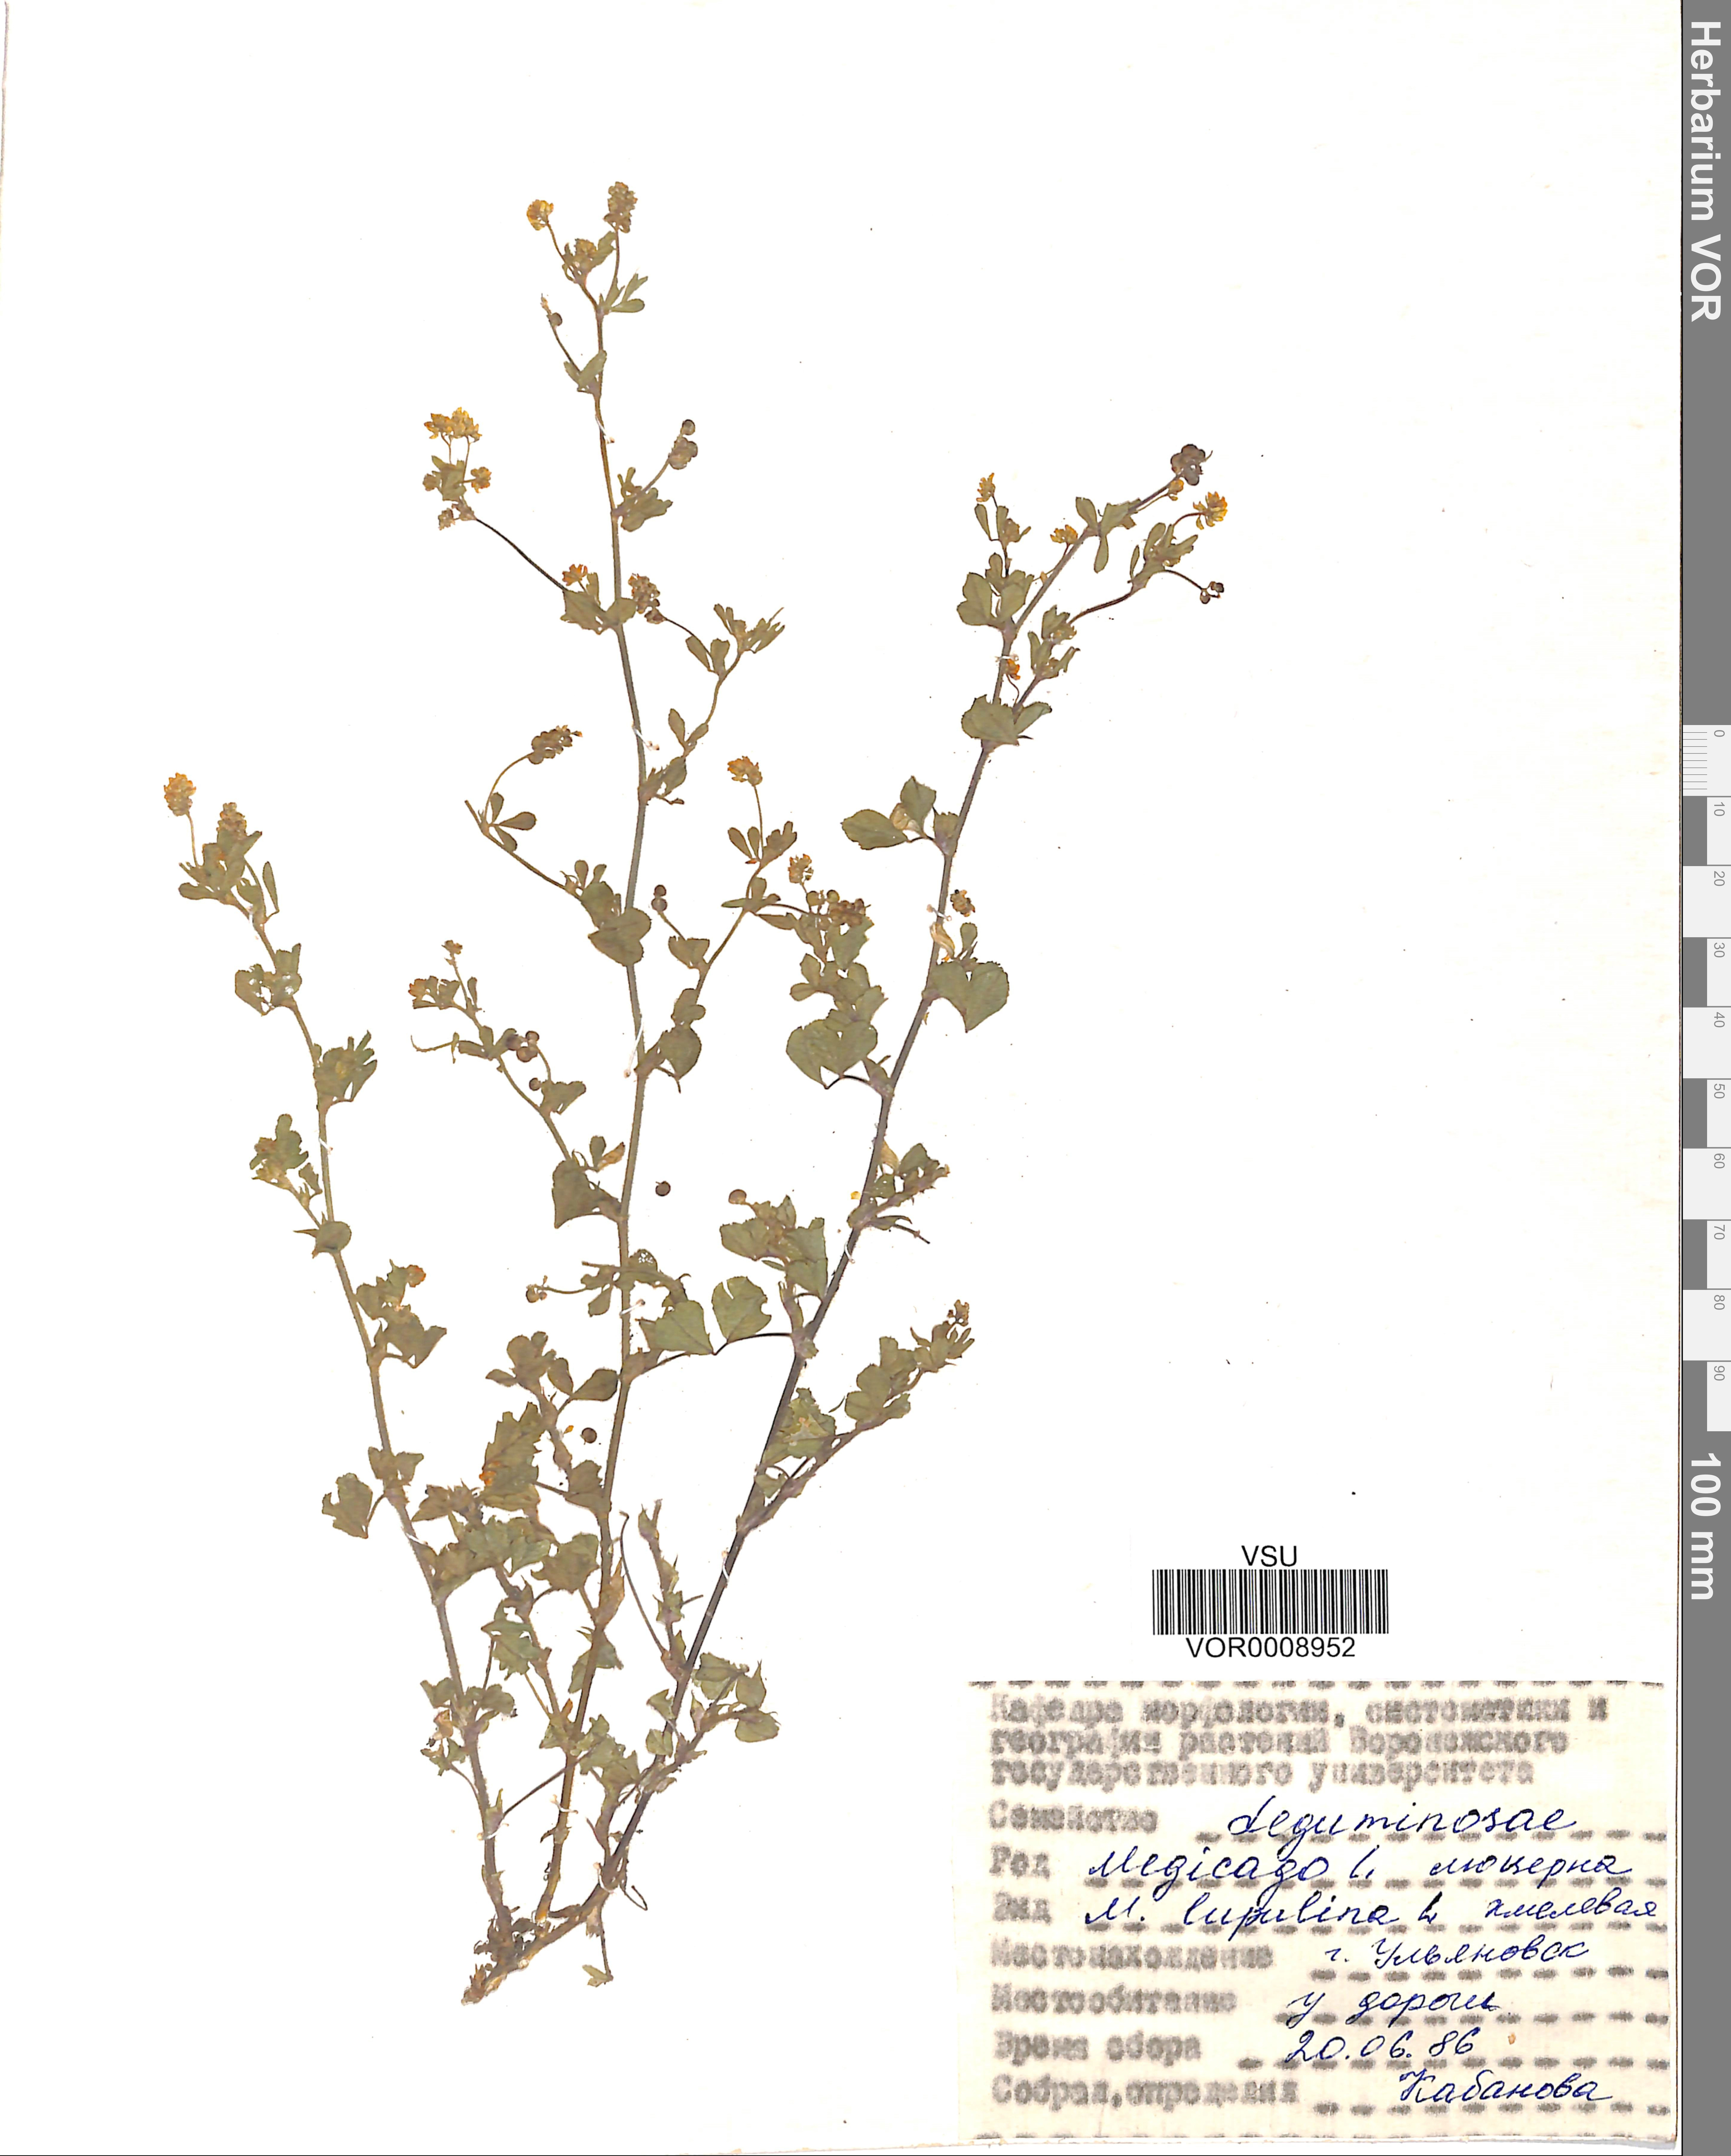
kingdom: Plantae
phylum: Tracheophyta
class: Magnoliopsida
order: Fabales
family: Fabaceae
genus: Medicago
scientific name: Medicago lupulina
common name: Black medick
